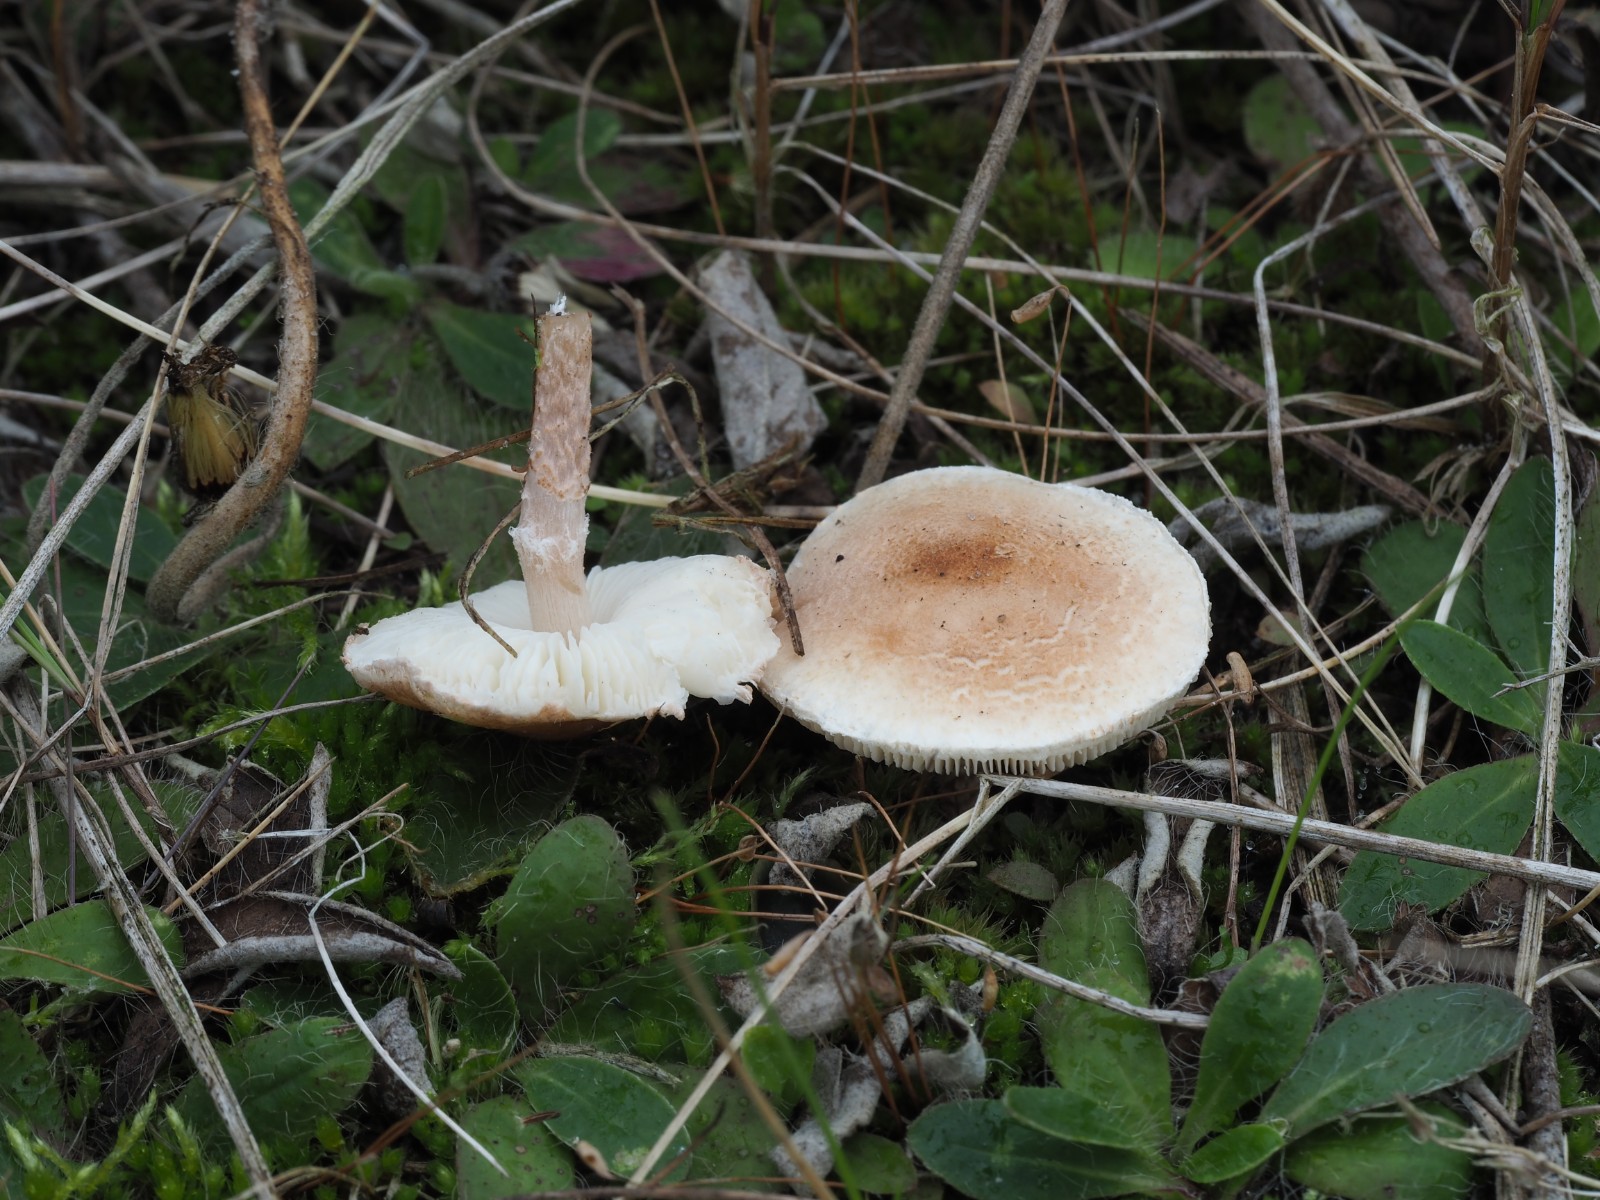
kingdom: Fungi
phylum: Basidiomycota
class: Agaricomycetes
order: Agaricales
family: Agaricaceae
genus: Lepiota
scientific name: Lepiota subincarnata
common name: kødfarvet parasolhat
